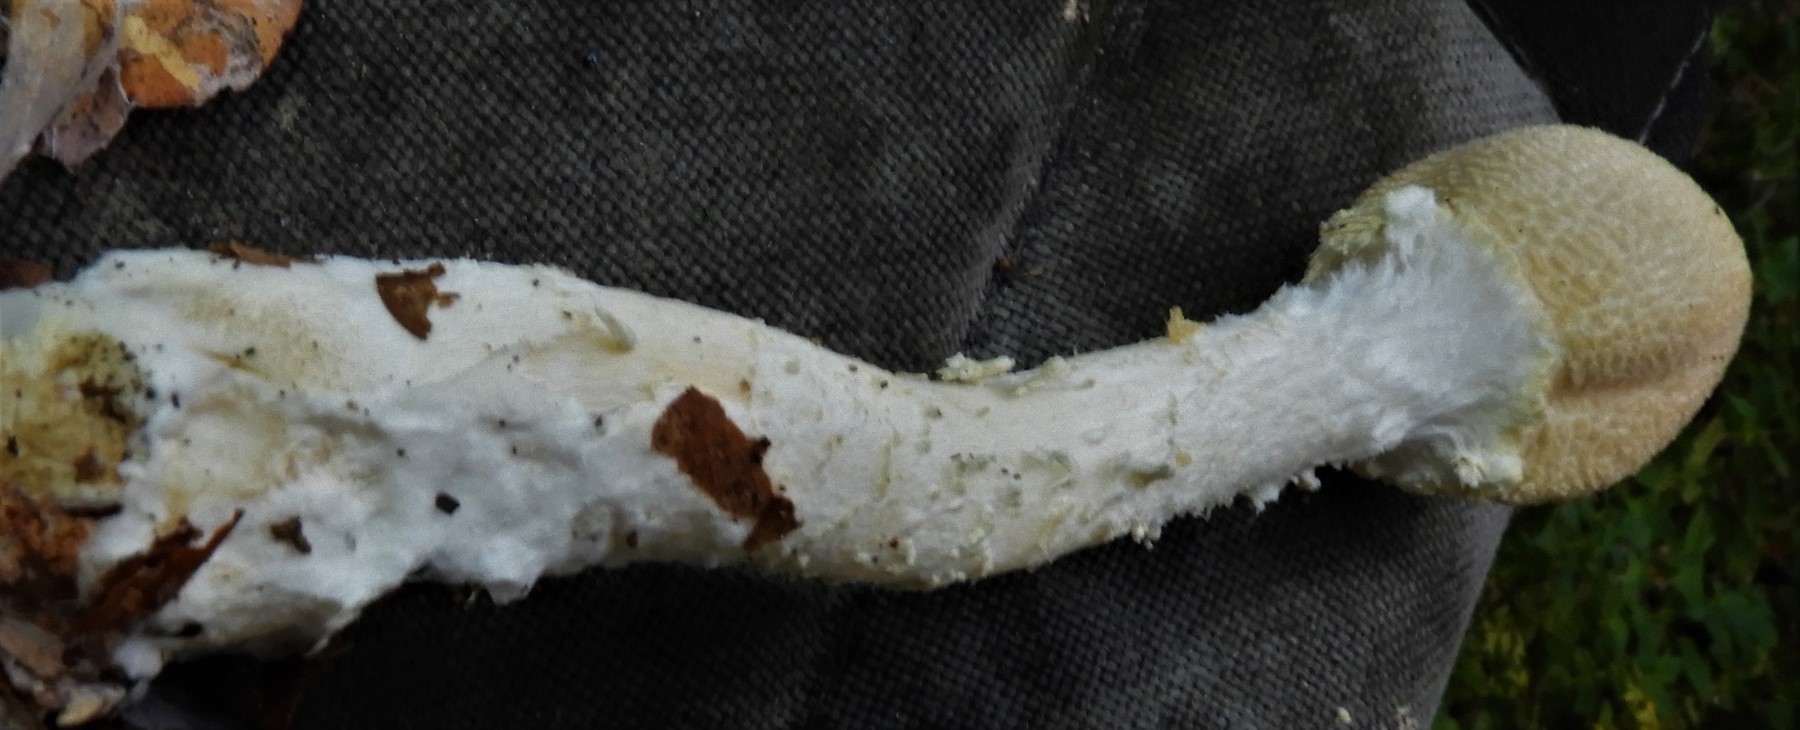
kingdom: Fungi
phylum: Basidiomycota
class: Agaricomycetes
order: Agaricales
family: Agaricaceae
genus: Agaricus
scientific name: Agaricus augustus
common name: prægtig champignon
